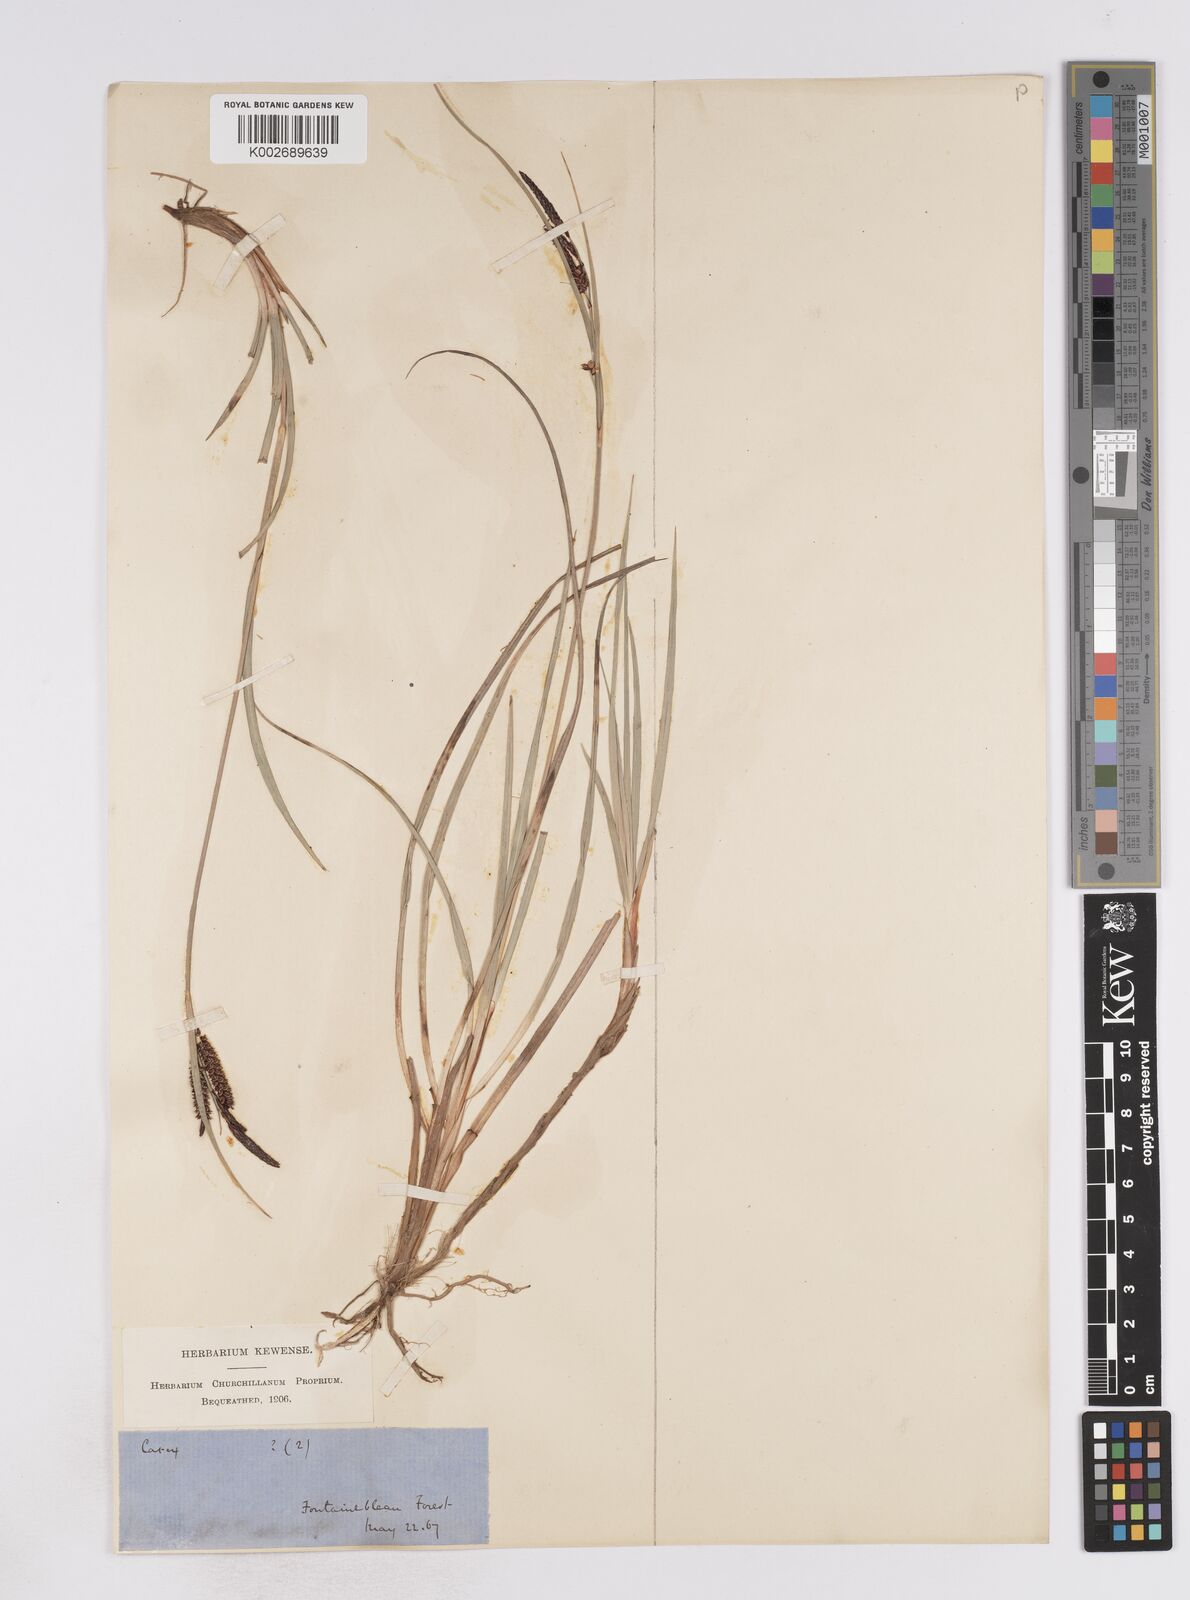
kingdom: Plantae
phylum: Tracheophyta
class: Liliopsida
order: Poales
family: Cyperaceae
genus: Carex
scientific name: Carex flacca
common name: Glaucous sedge
